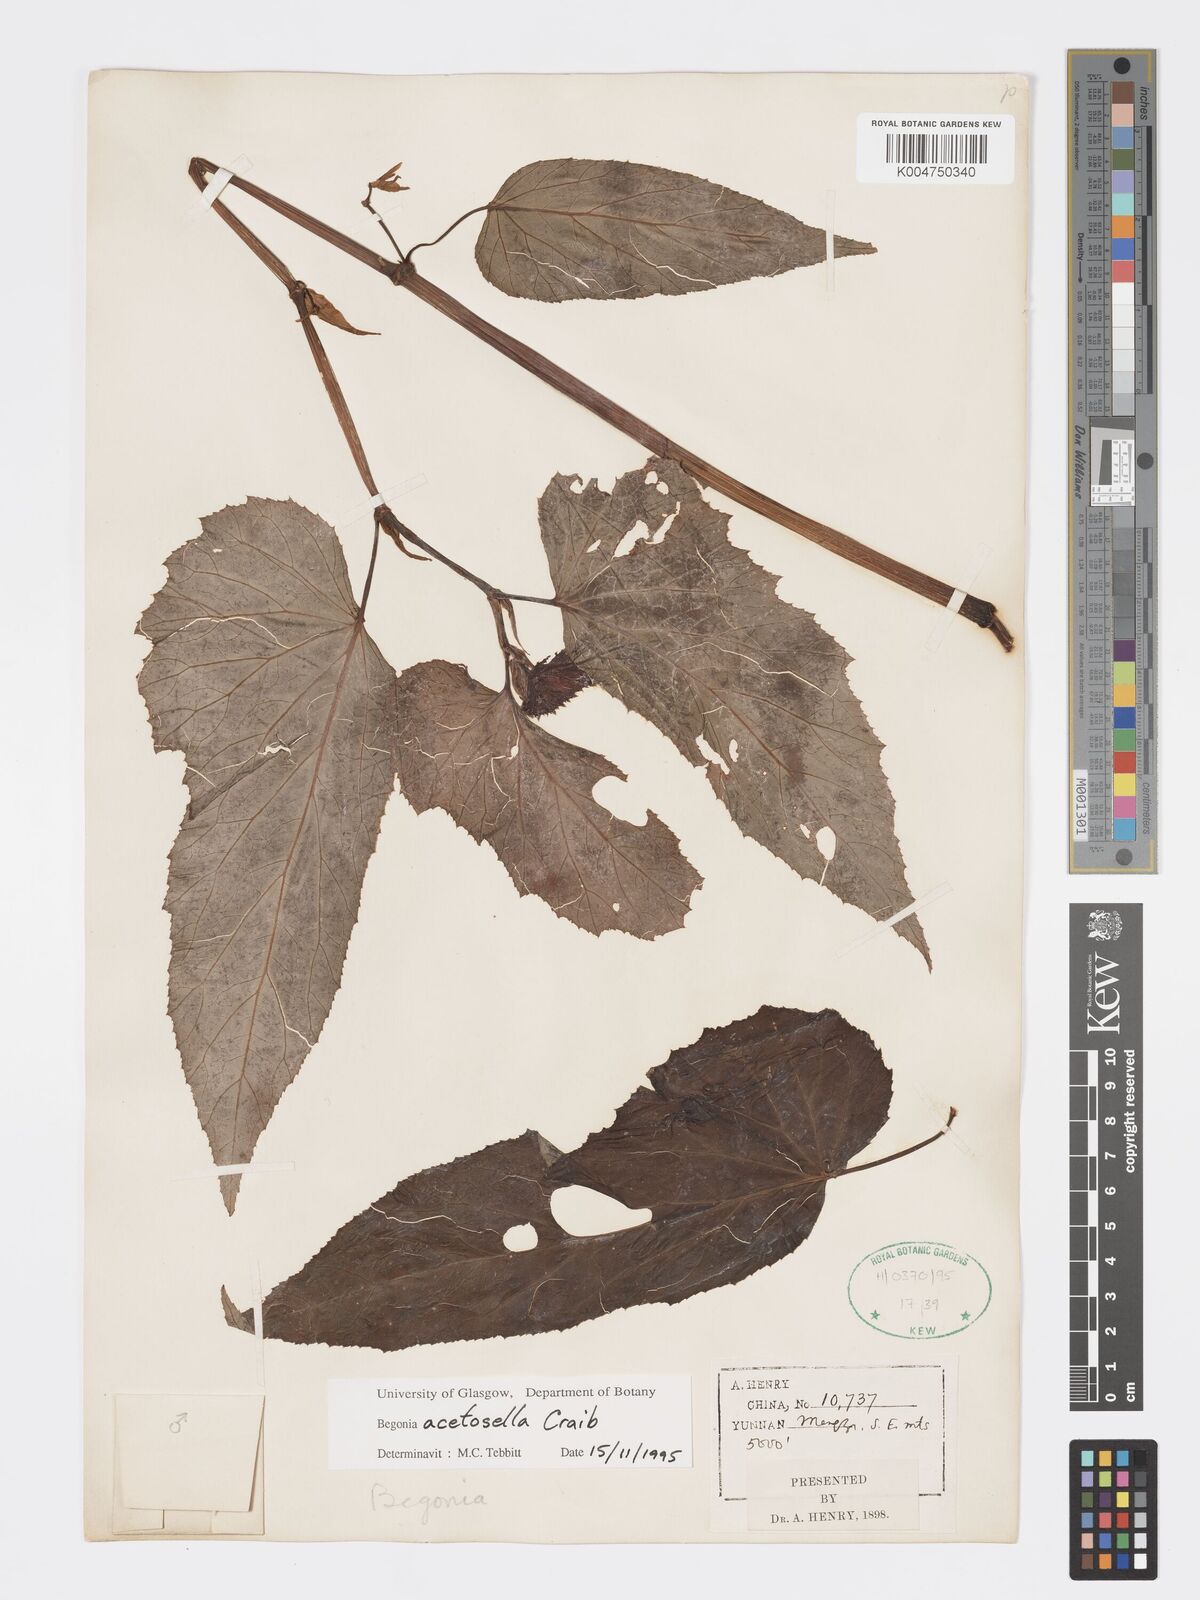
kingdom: Plantae
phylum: Tracheophyta
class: Magnoliopsida
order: Cucurbitales
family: Begoniaceae
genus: Begonia
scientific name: Begonia acetosella
